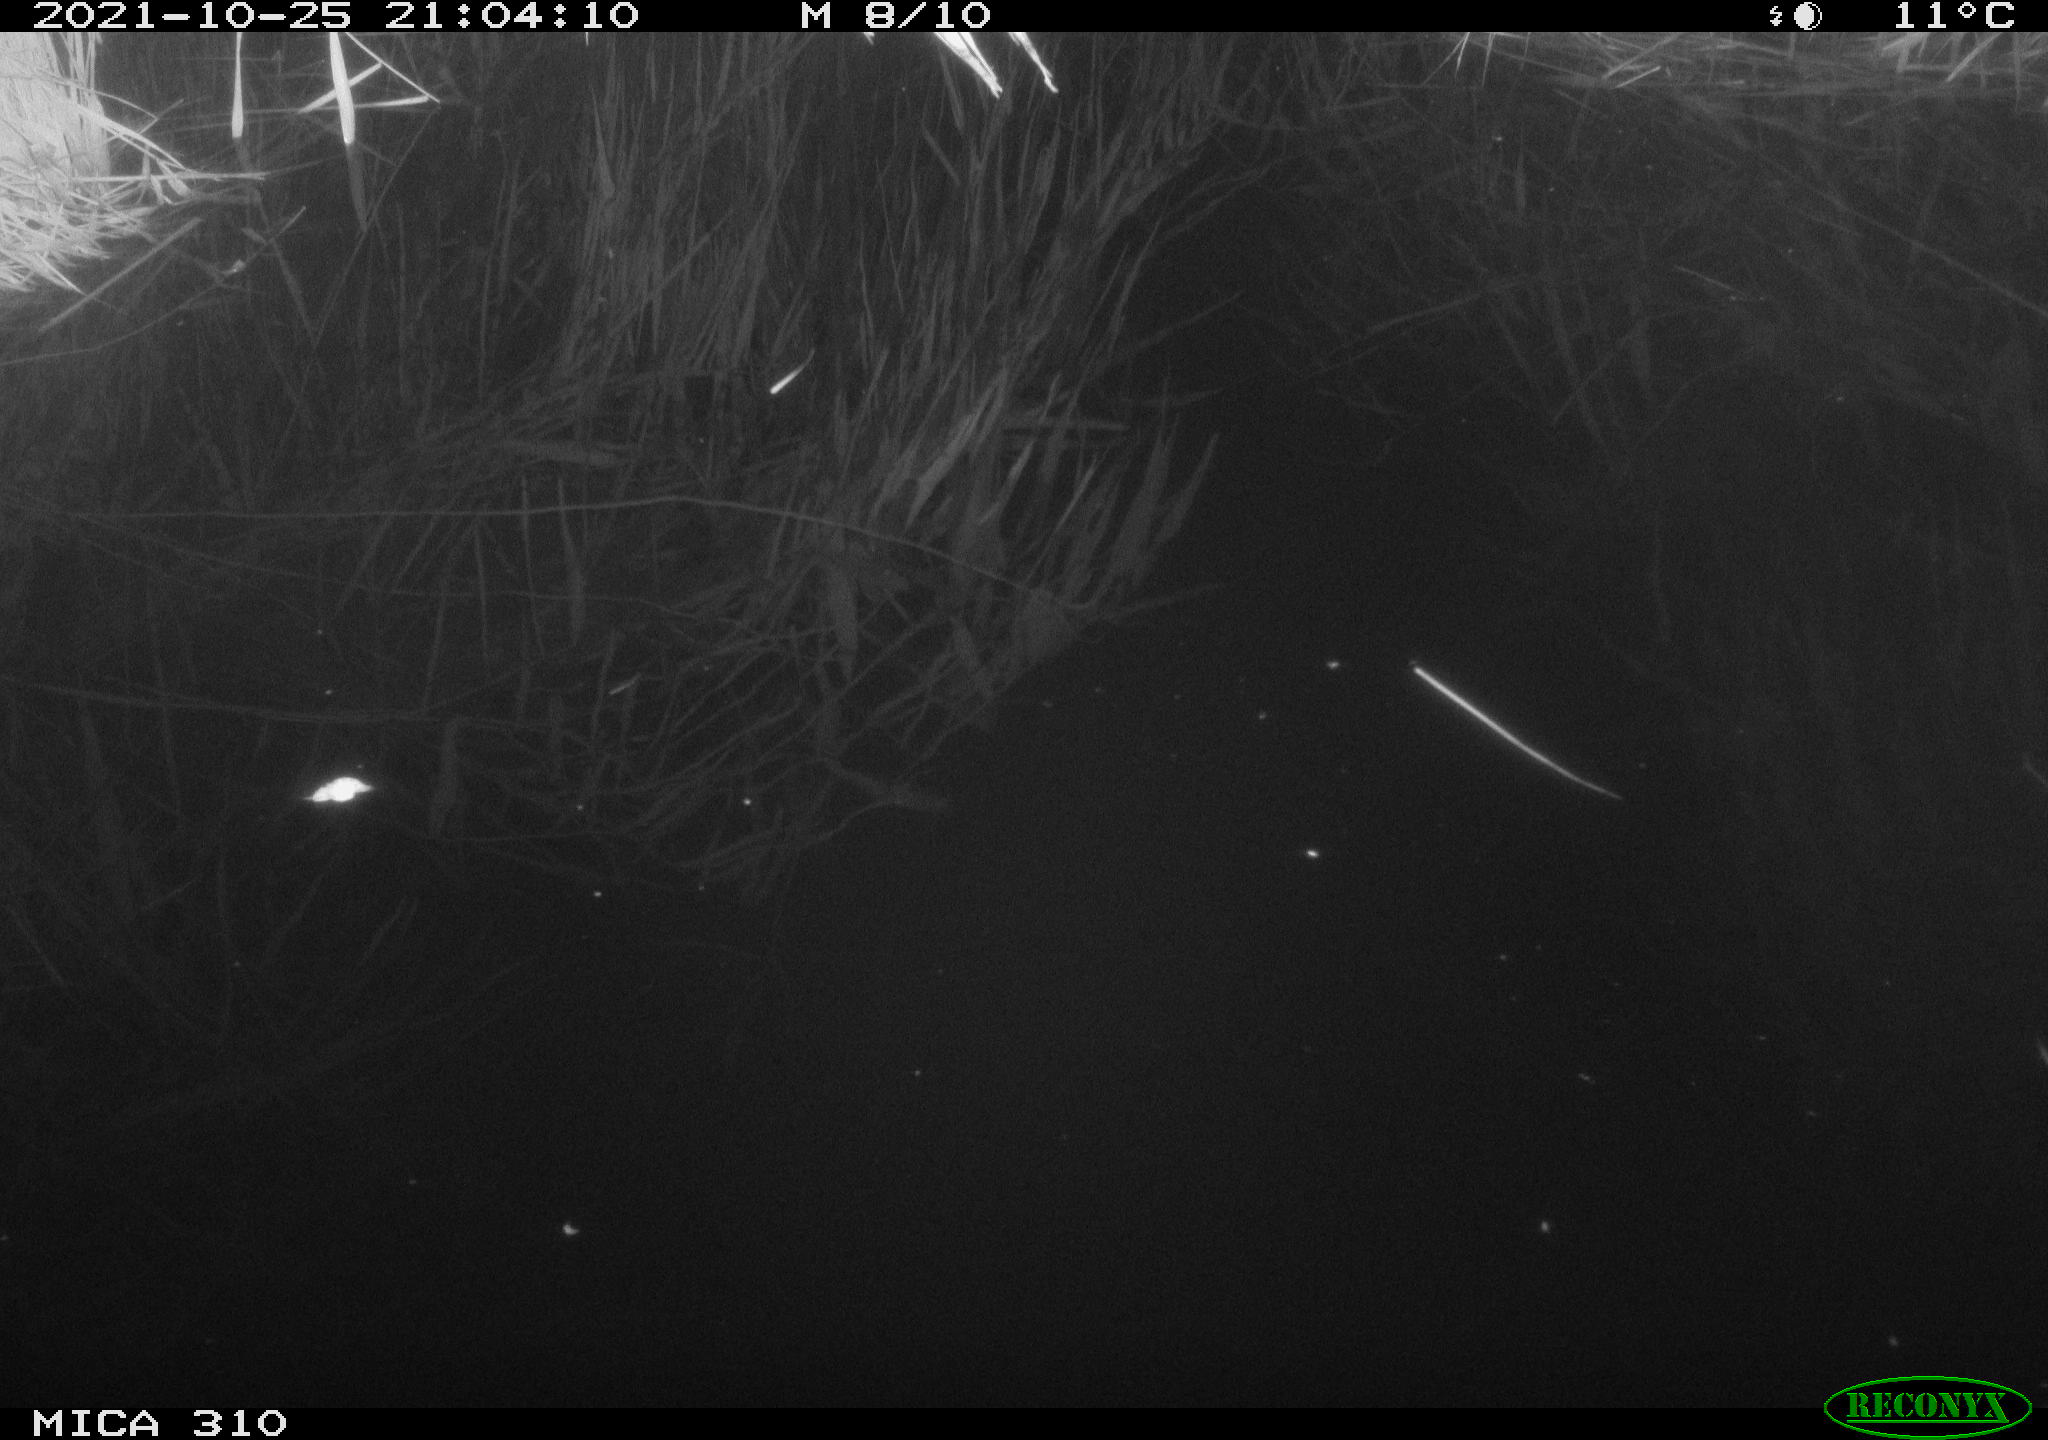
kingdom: Animalia
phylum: Chordata
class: Aves
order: Anseriformes
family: Anatidae
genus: Anas
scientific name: Anas platyrhynchos
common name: Mallard
